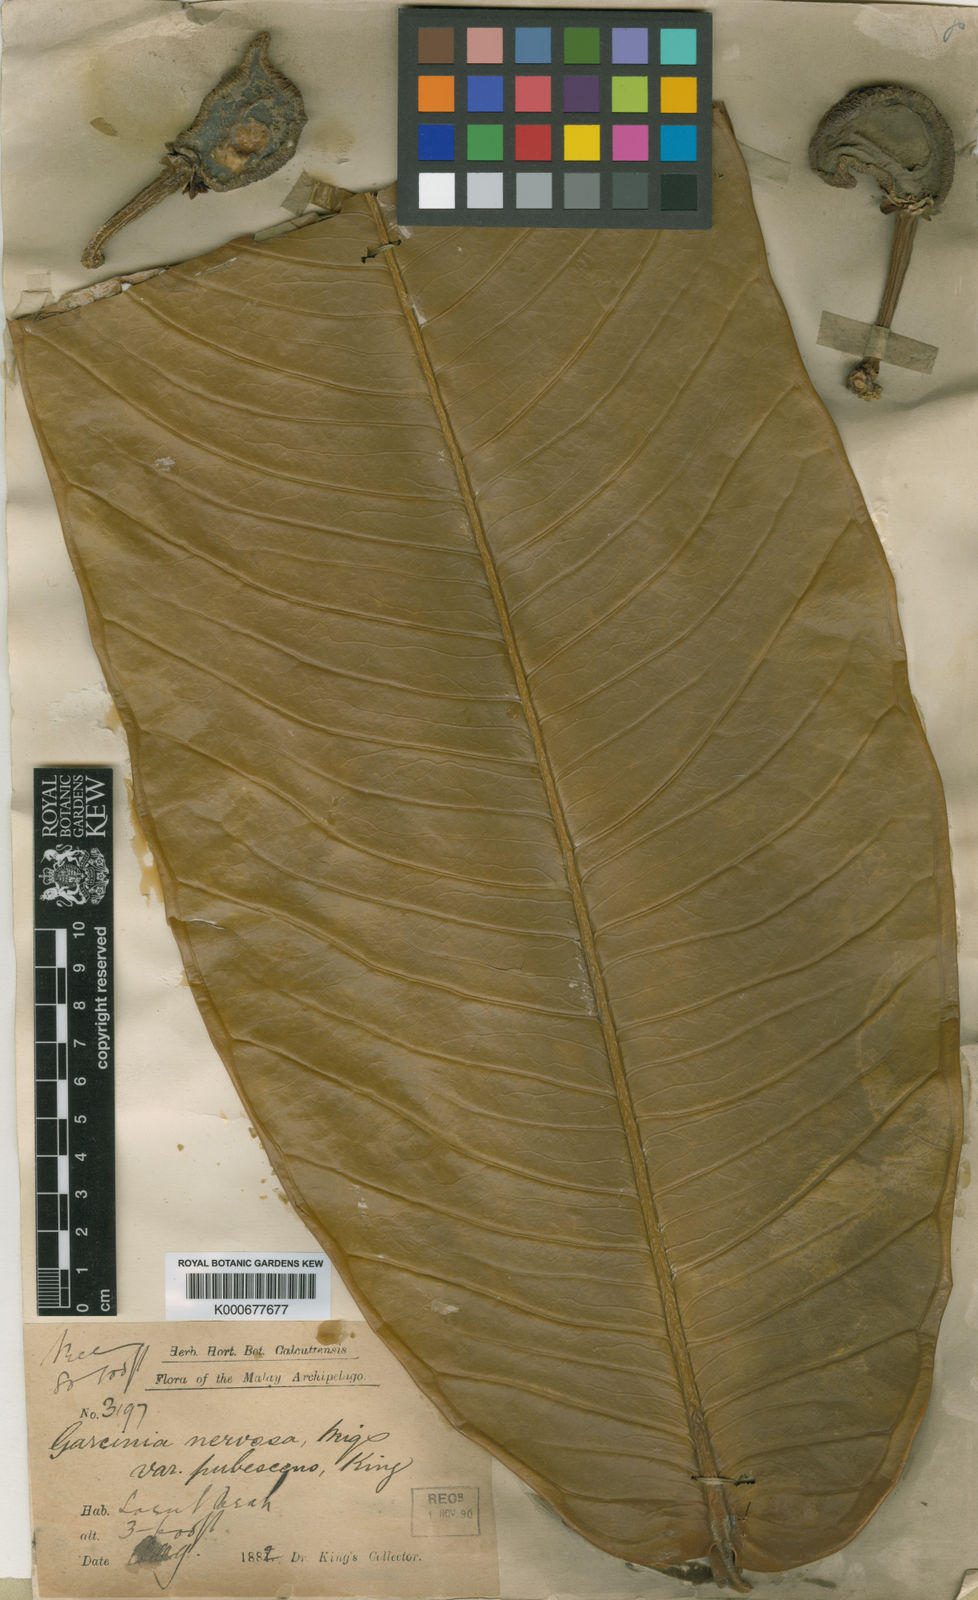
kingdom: Plantae
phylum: Tracheophyta
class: Magnoliopsida
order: Malpighiales
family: Clusiaceae
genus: Garcinia
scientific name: Garcinia nervosa
